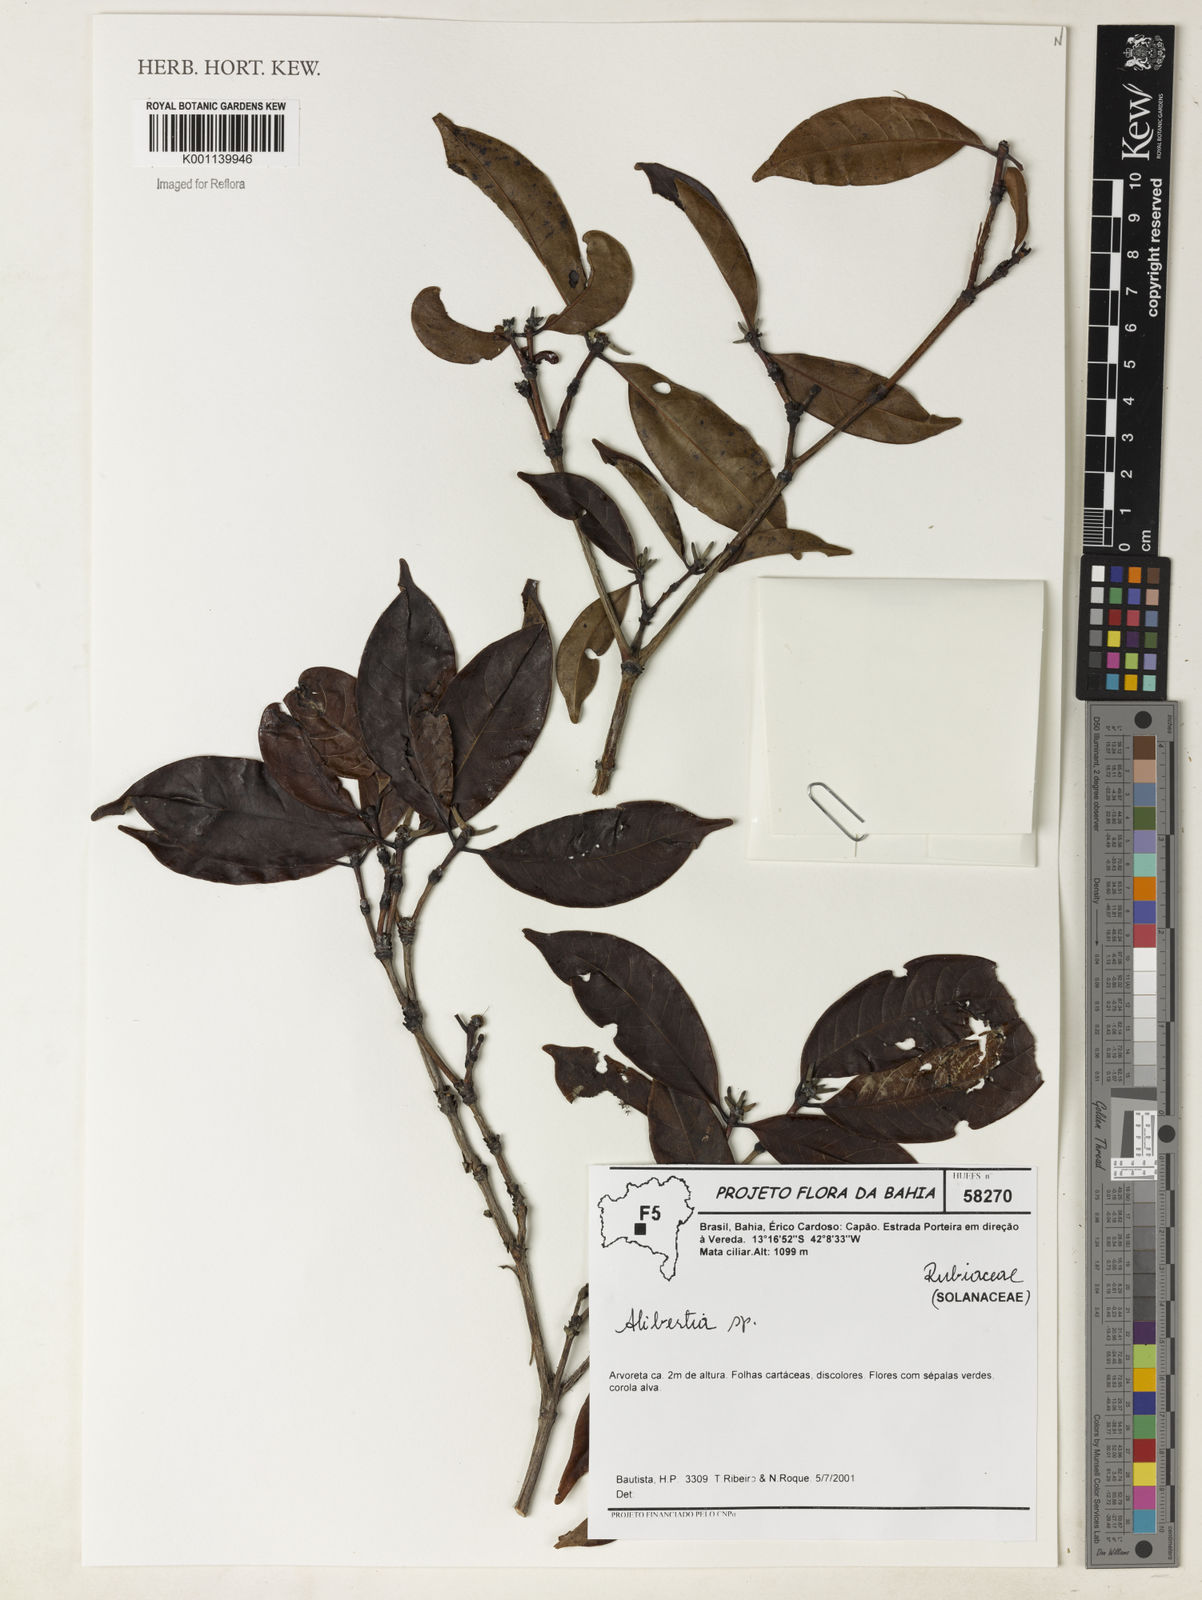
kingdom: Plantae
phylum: Tracheophyta
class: Magnoliopsida
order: Gentianales
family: Rubiaceae
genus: Alibertia
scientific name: Alibertia
